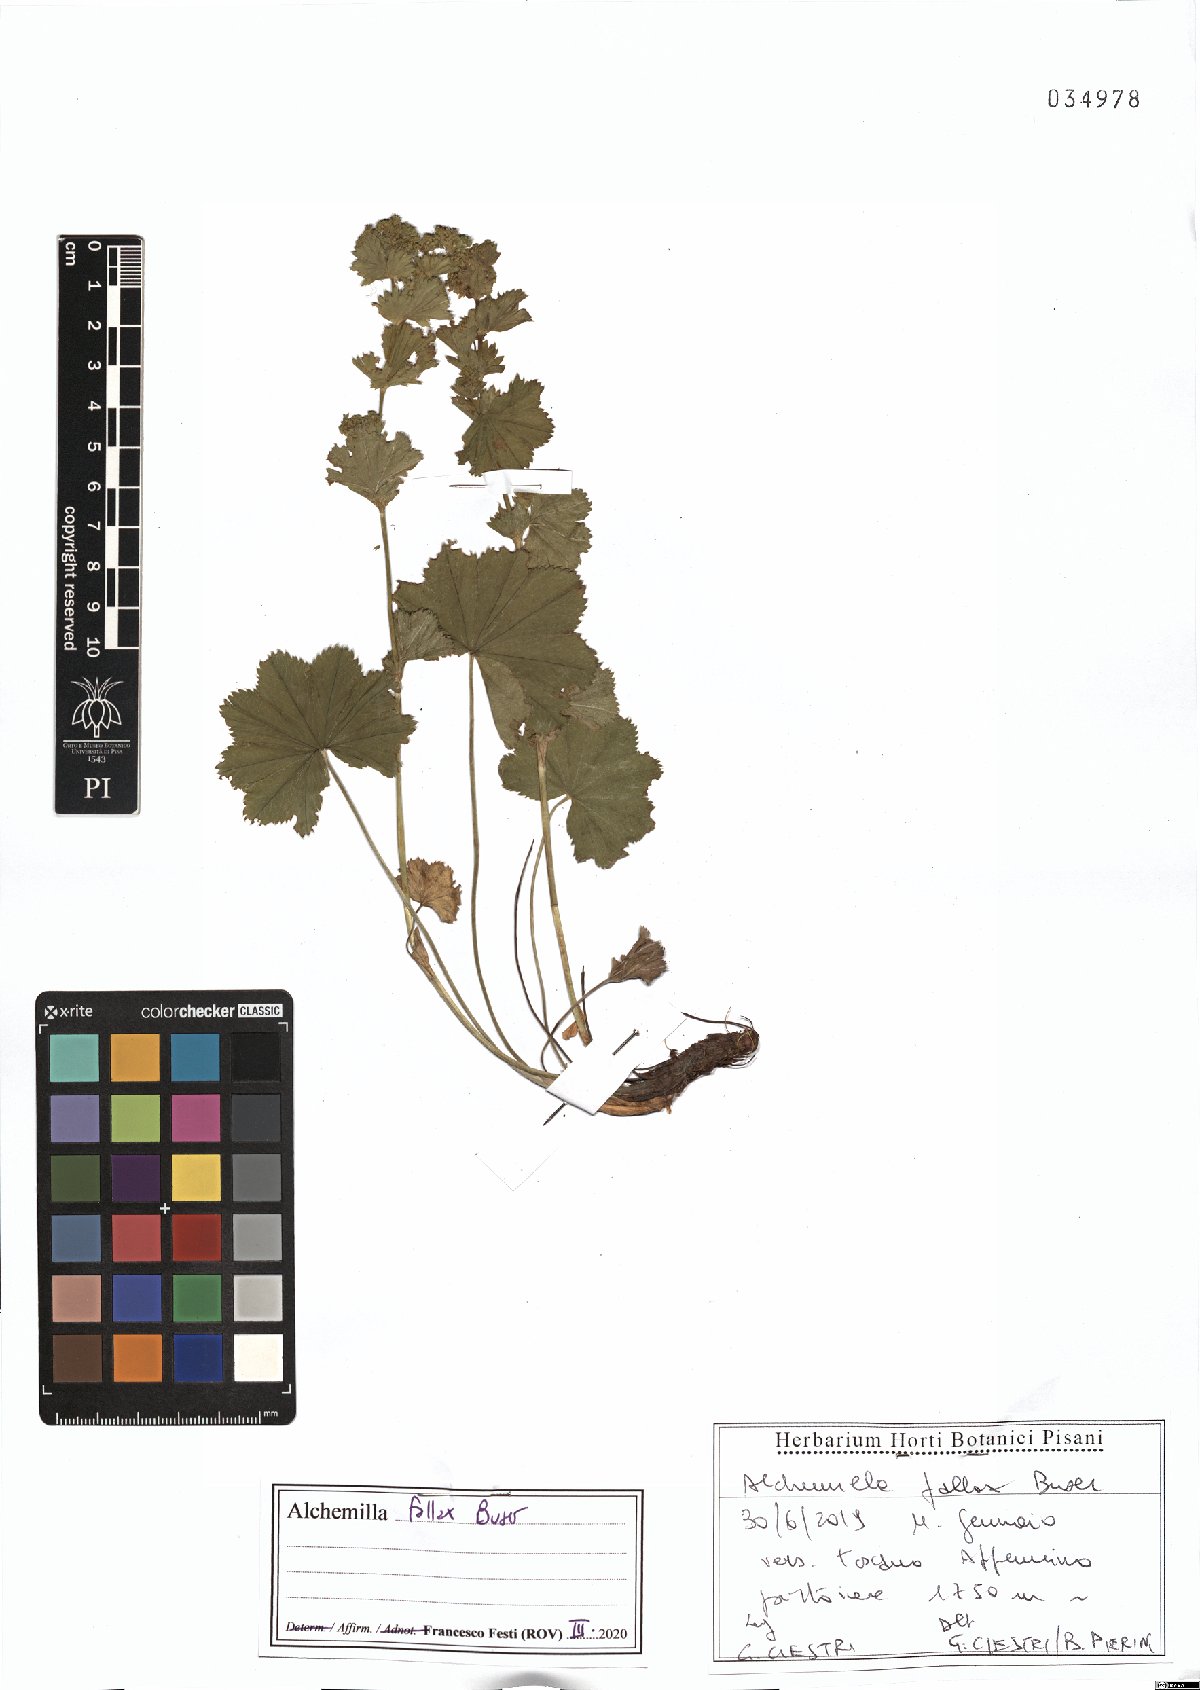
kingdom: Plantae
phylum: Tracheophyta
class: Magnoliopsida
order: Rosales
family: Rosaceae
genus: Alchemilla
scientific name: Alchemilla fallax
